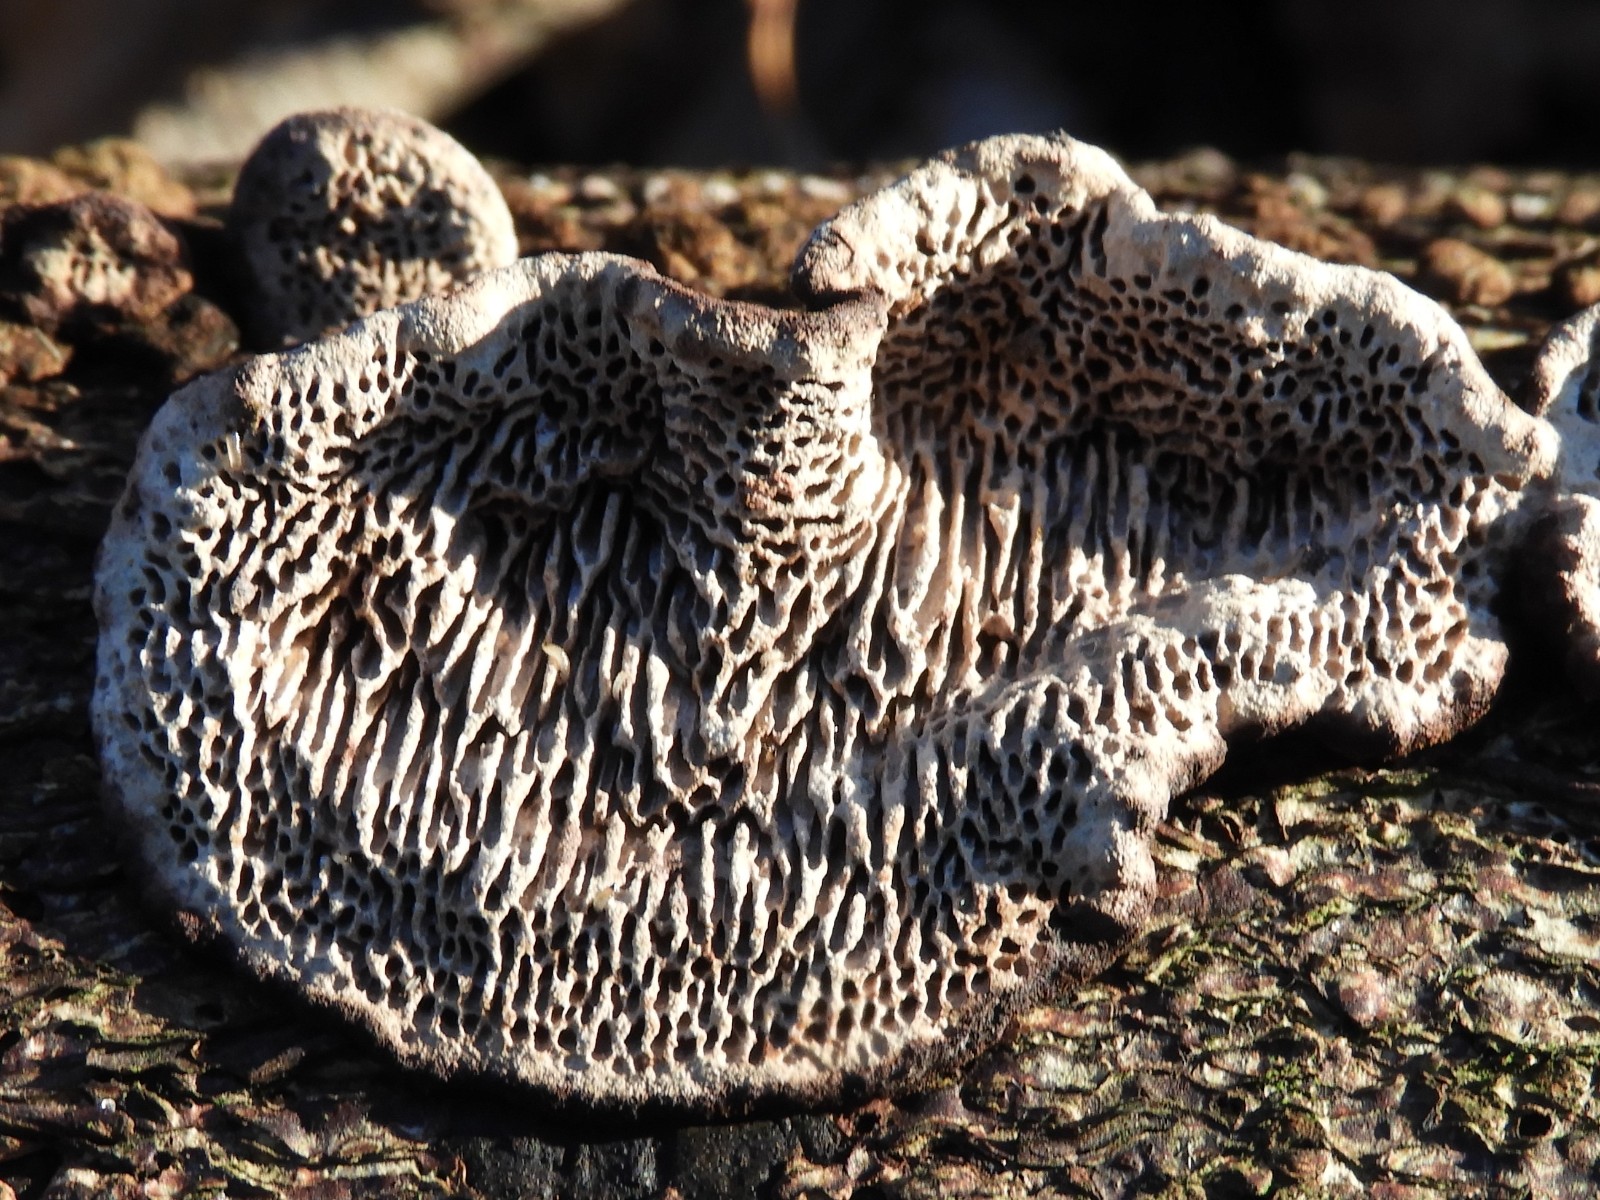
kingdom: Fungi
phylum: Basidiomycota
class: Agaricomycetes
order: Polyporales
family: Polyporaceae
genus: Podofomes
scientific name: Podofomes mollis
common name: blød begporesvamp
